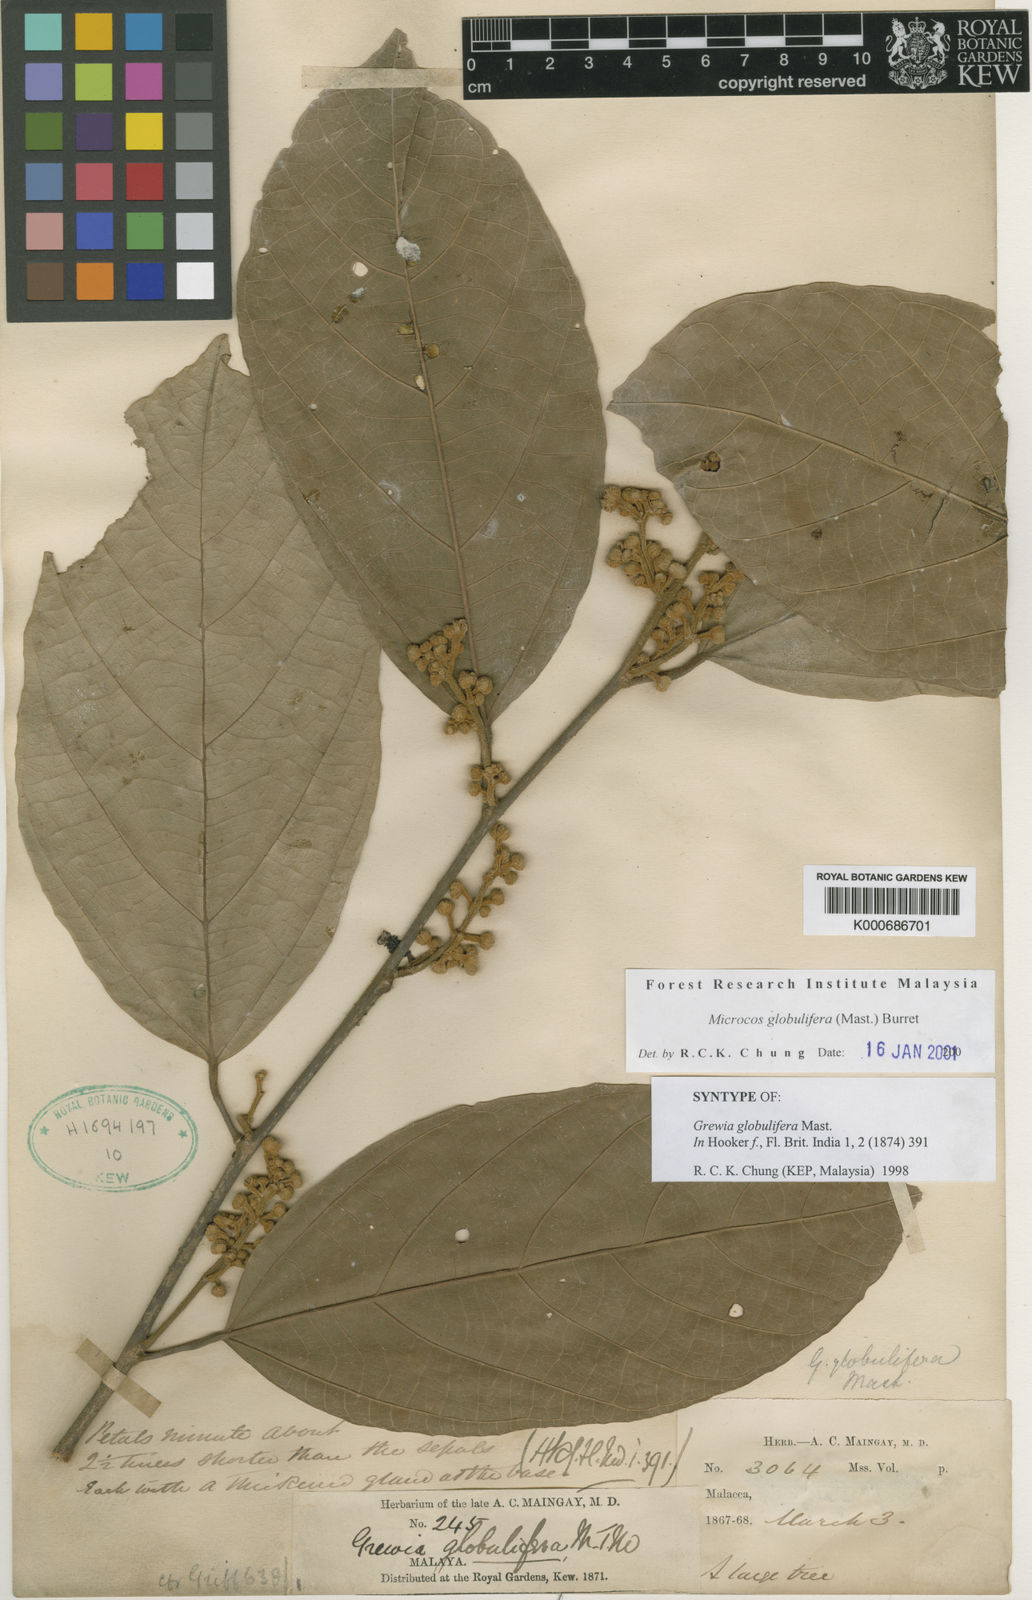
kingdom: Plantae
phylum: Tracheophyta
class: Magnoliopsida
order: Malvales
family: Malvaceae
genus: Microcos
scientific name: Microcos globulifera
